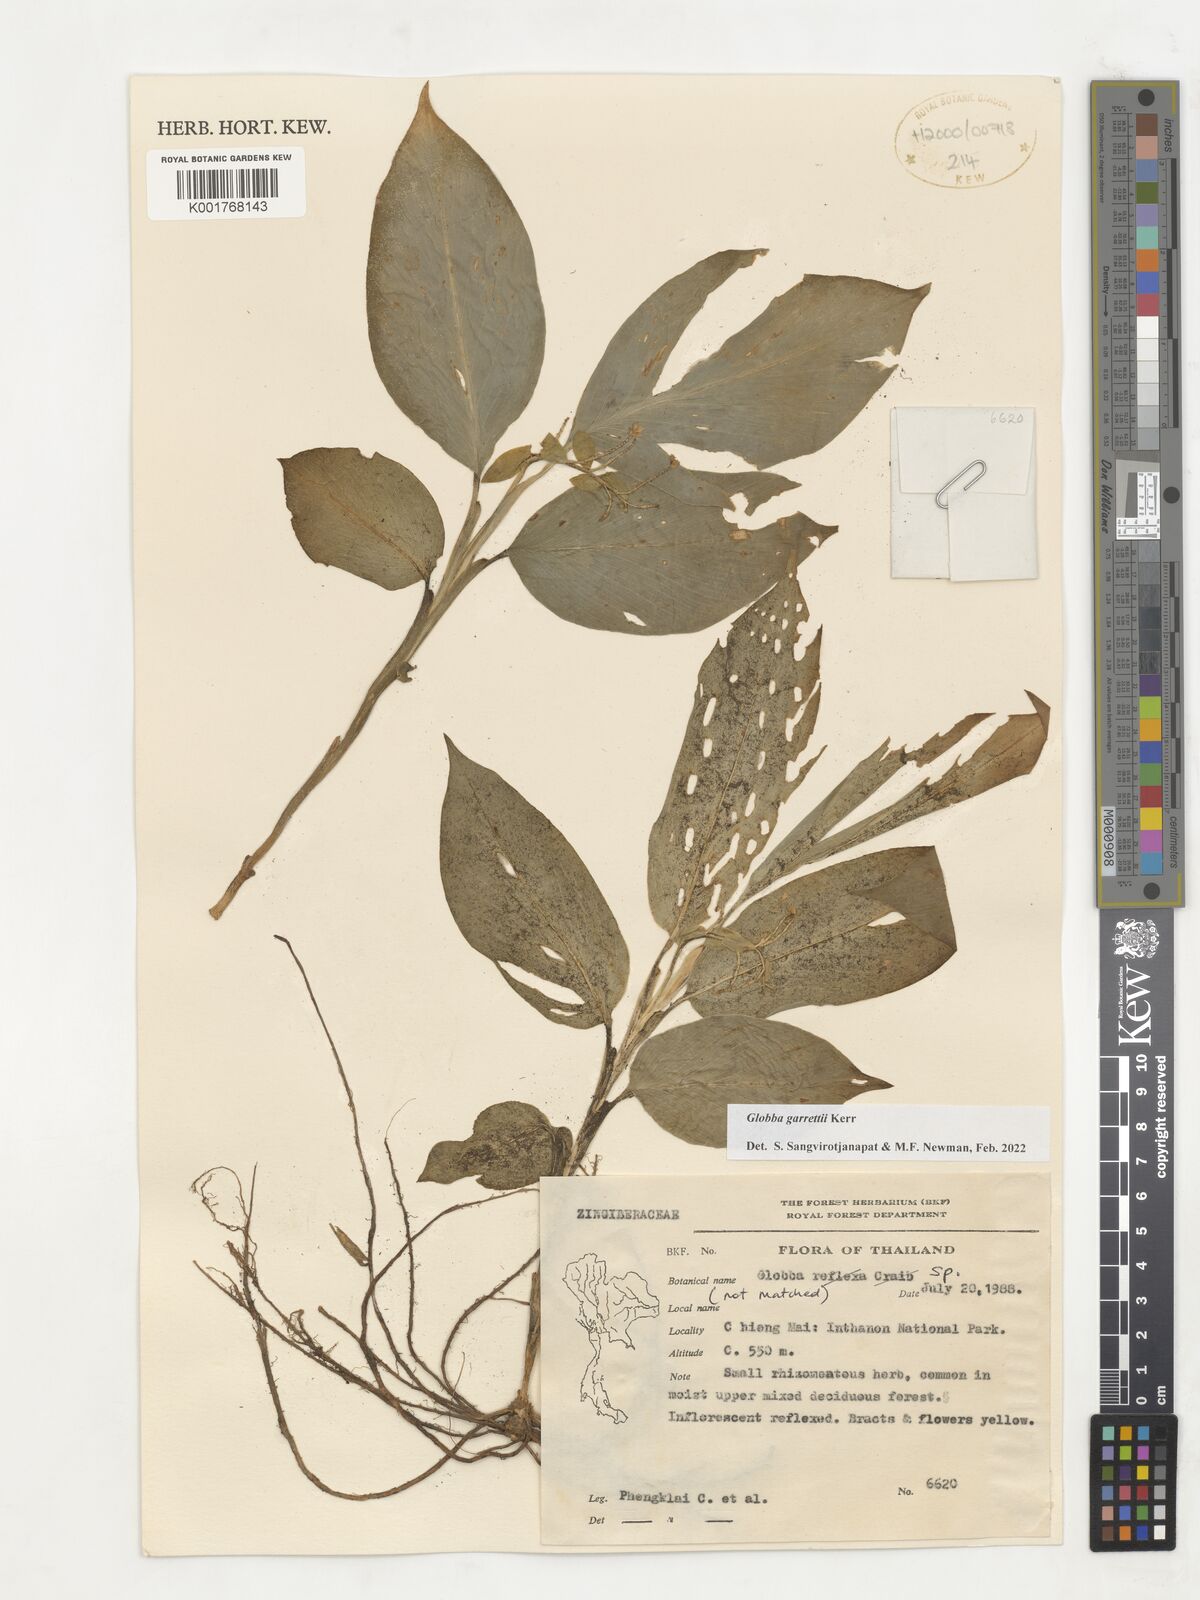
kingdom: Plantae
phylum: Tracheophyta
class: Liliopsida
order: Zingiberales
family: Zingiberaceae
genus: Globba
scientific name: Globba garrettii
